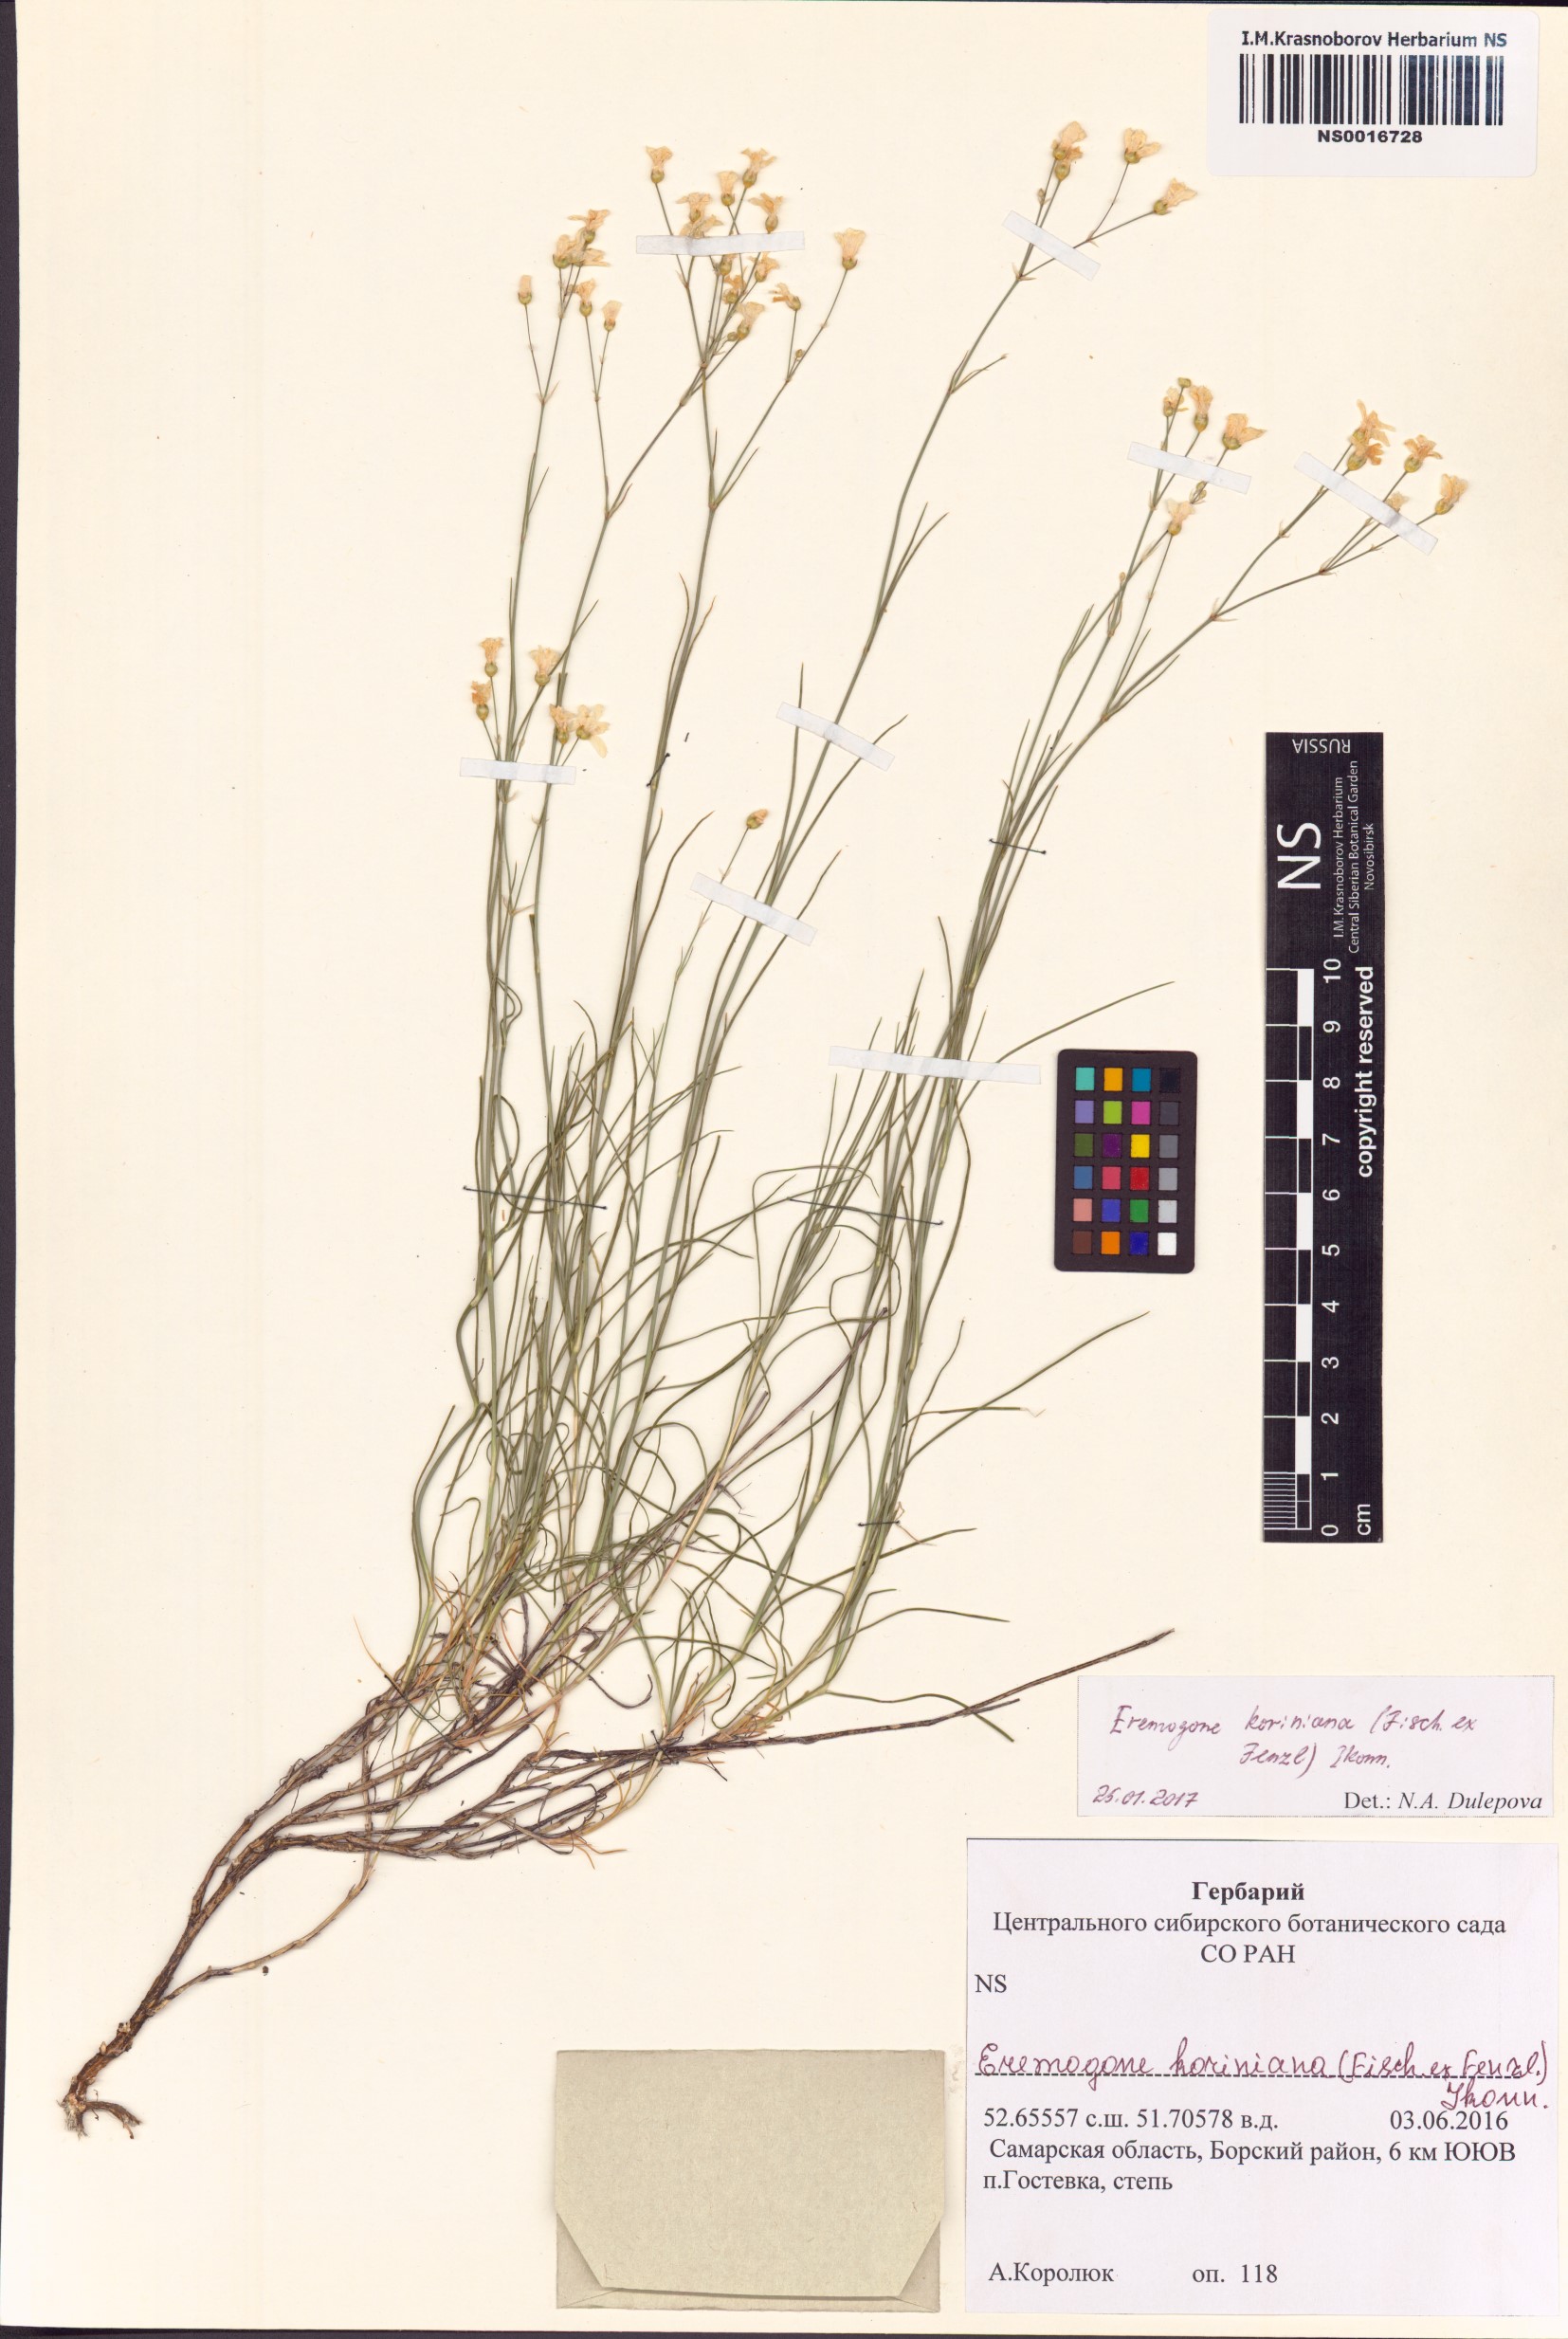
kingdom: Plantae
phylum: Tracheophyta
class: Magnoliopsida
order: Caryophyllales
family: Caryophyllaceae
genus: Eremogone
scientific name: Eremogone saxatilis
